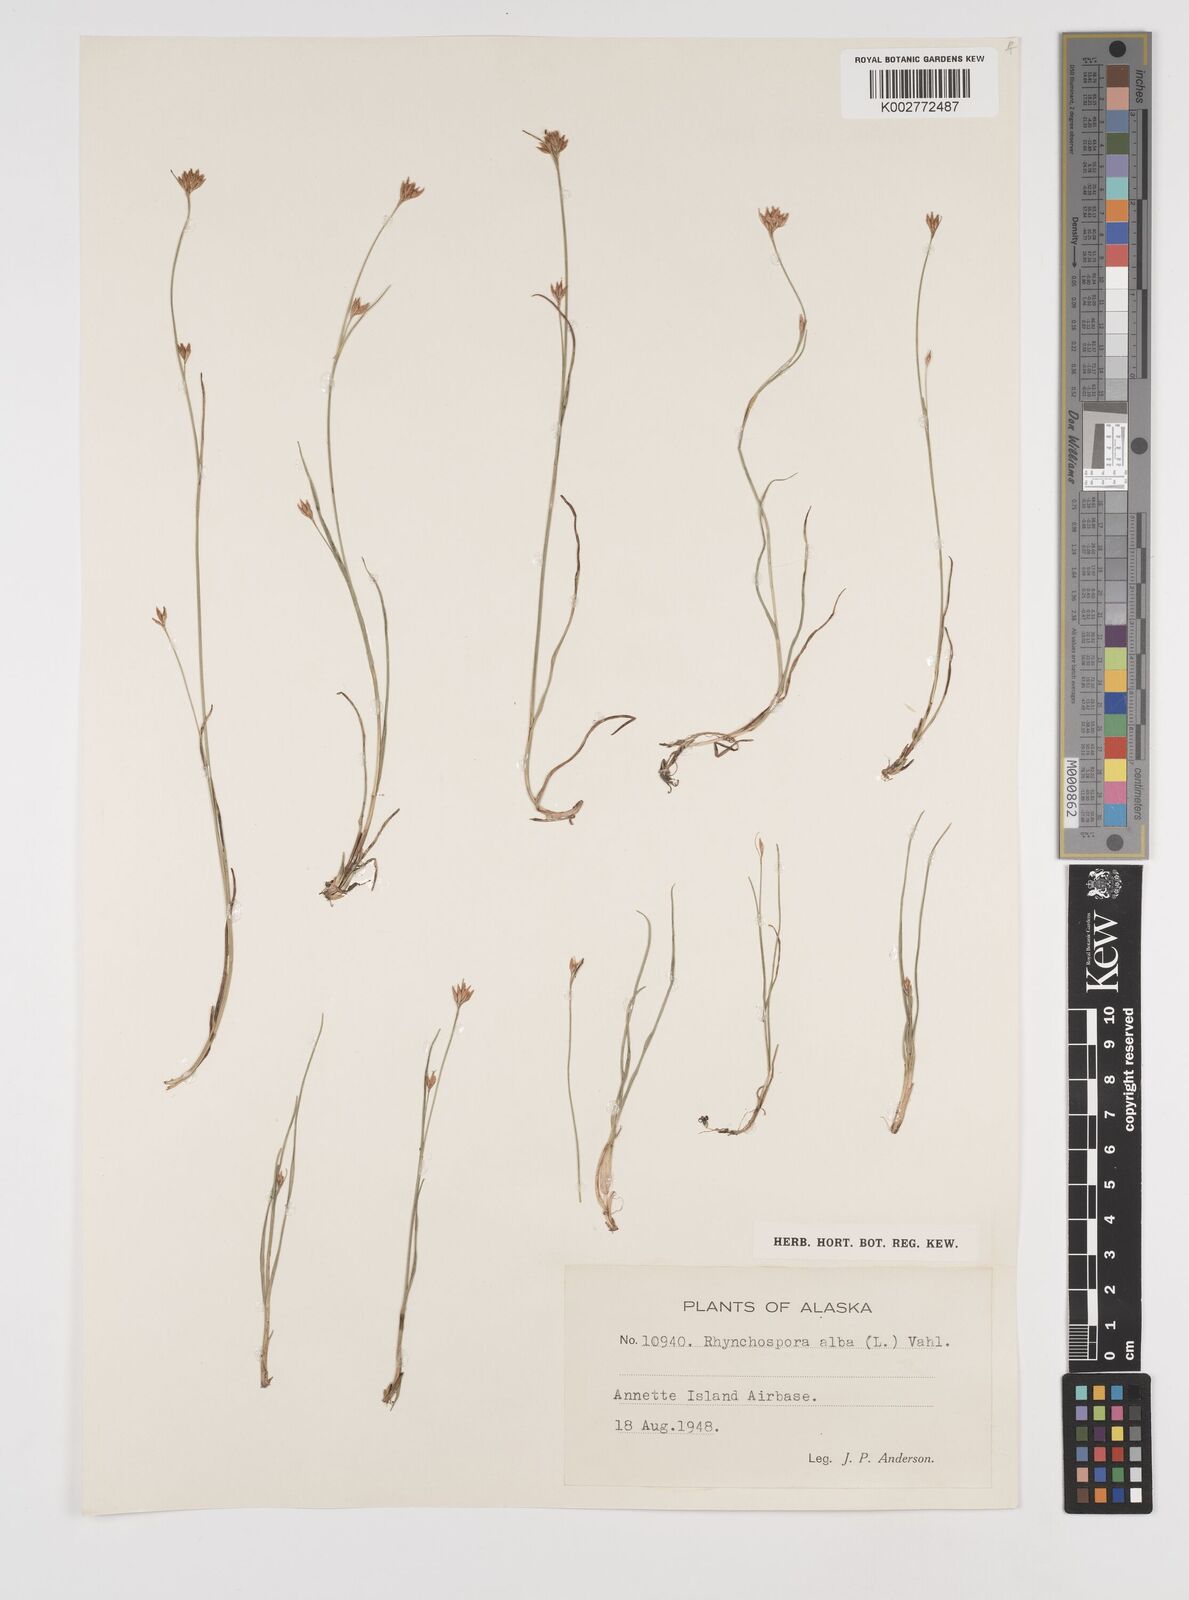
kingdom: Plantae
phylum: Tracheophyta
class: Liliopsida
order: Poales
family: Cyperaceae
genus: Rhynchospora
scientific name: Rhynchospora alba
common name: White beak-sedge
